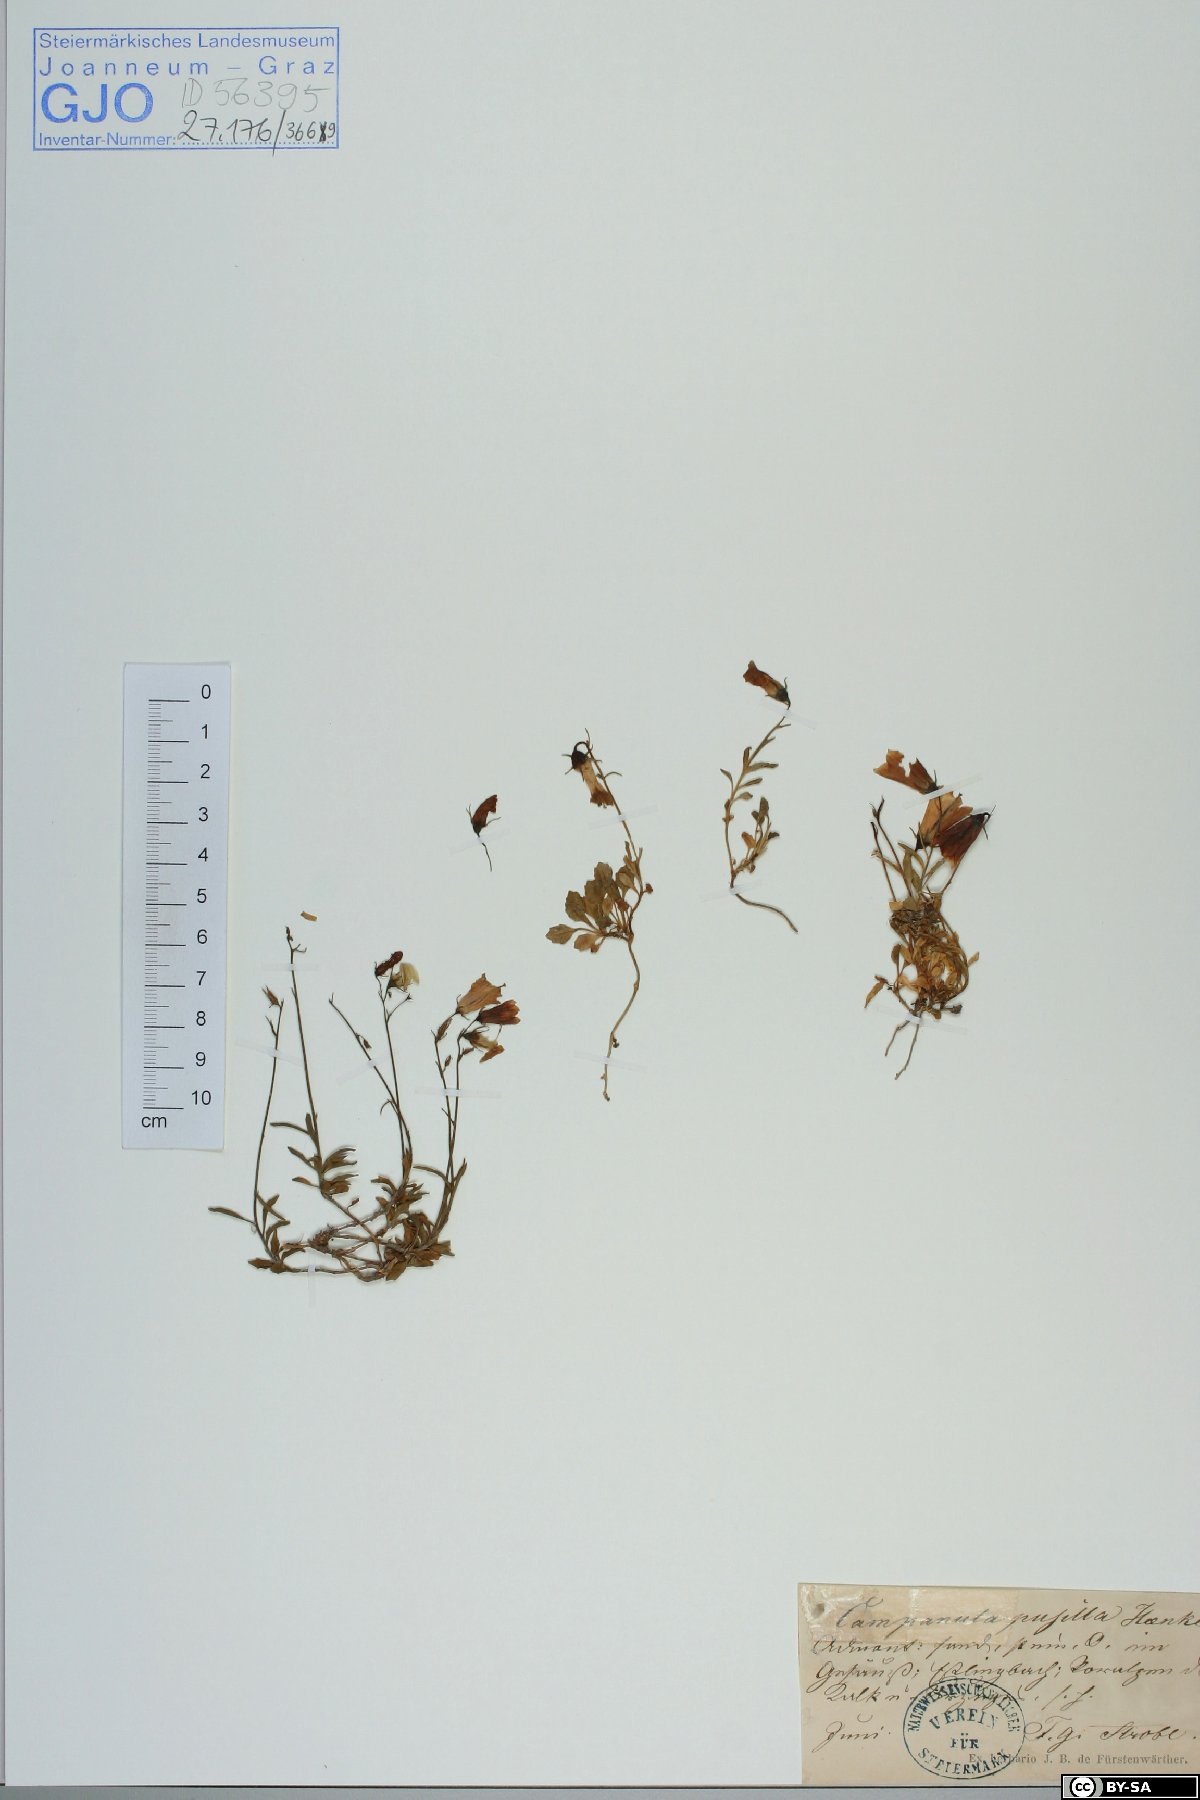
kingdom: Plantae
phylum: Tracheophyta
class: Magnoliopsida
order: Asterales
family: Campanulaceae
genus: Campanula
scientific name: Campanula cochleariifolia
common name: Fairies'-thimbles
